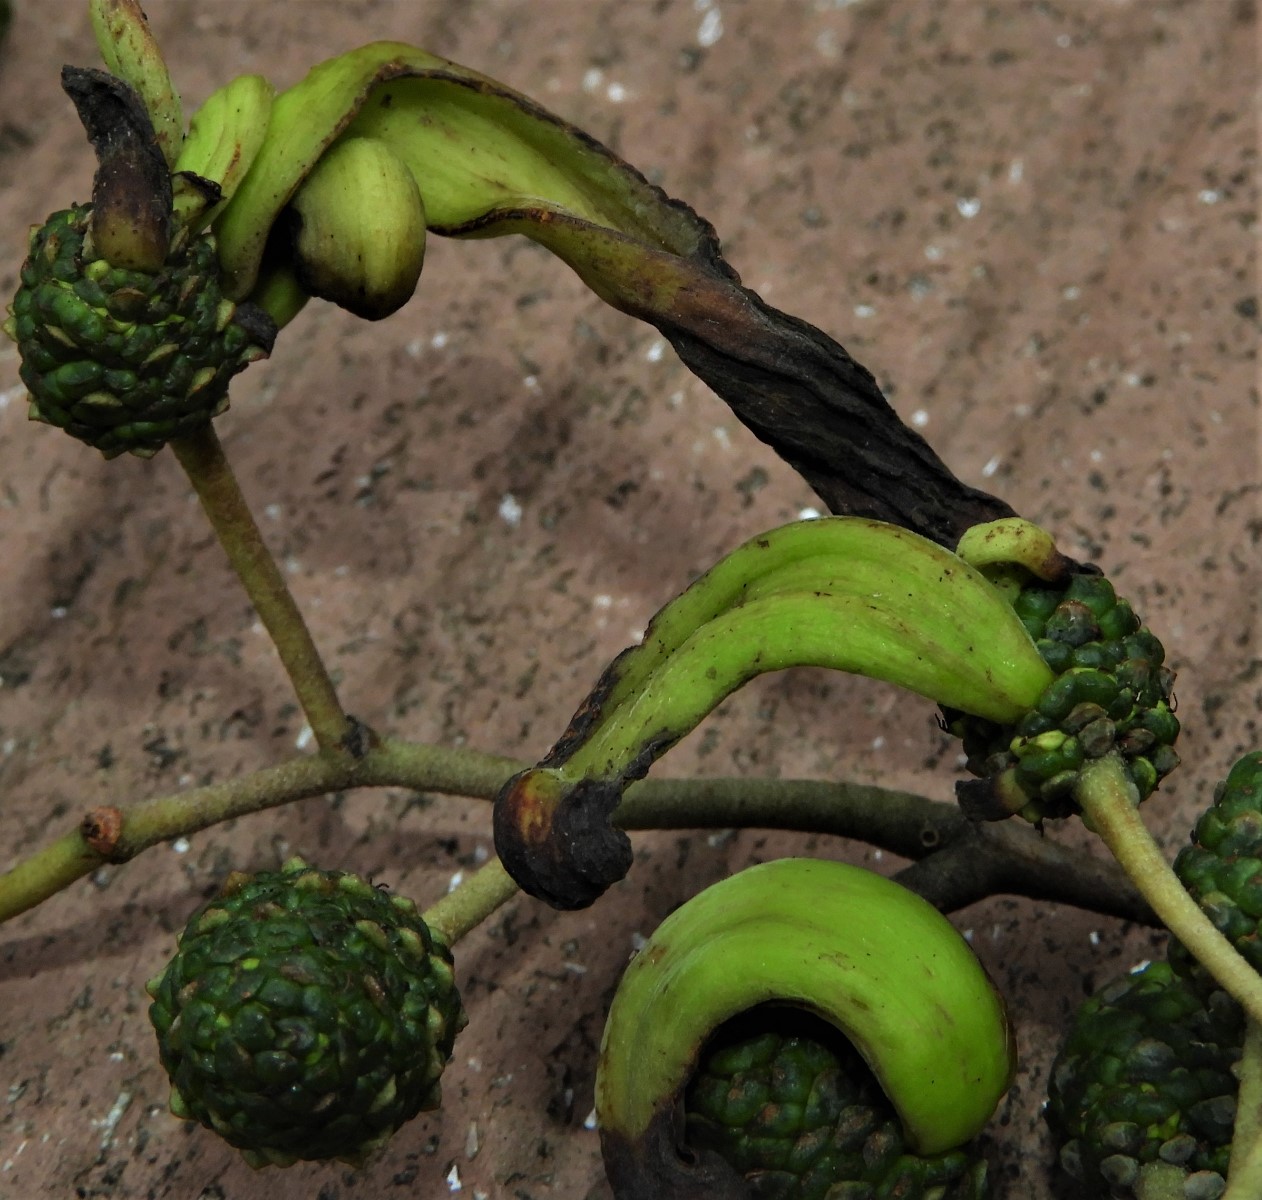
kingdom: Fungi
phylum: Ascomycota
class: Taphrinomycetes
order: Taphrinales
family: Taphrinaceae
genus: Taphrina
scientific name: Taphrina alni
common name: Alder tongue
